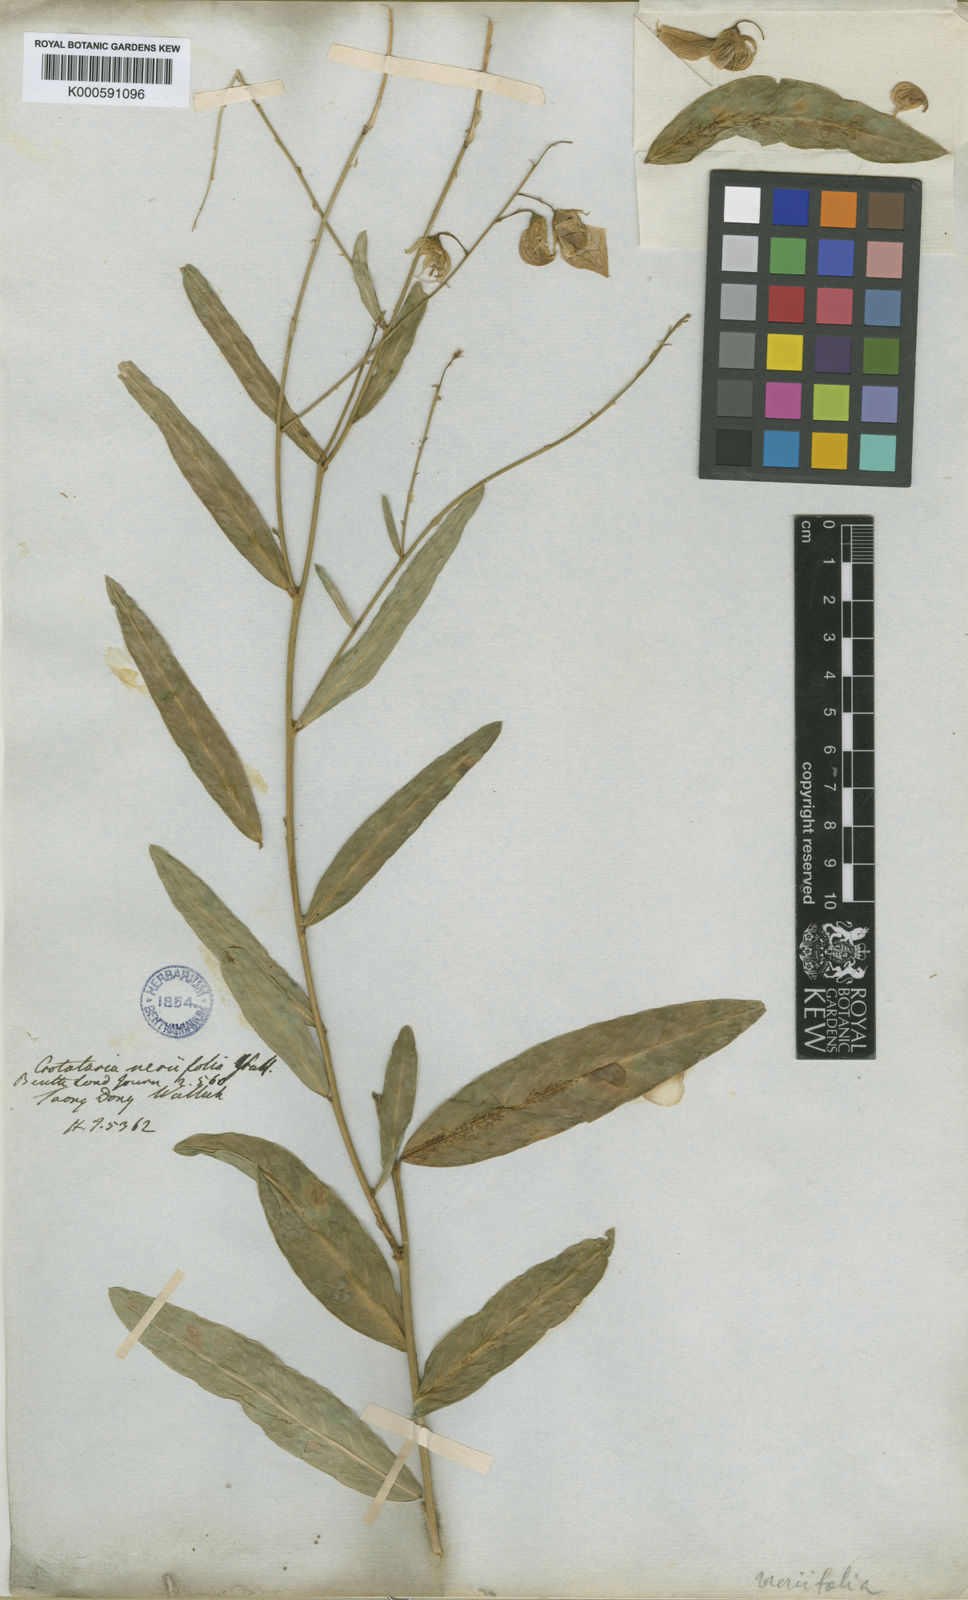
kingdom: Plantae
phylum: Tracheophyta
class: Magnoliopsida
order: Fabales
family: Fabaceae
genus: Crotalaria
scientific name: Crotalaria variifolia
